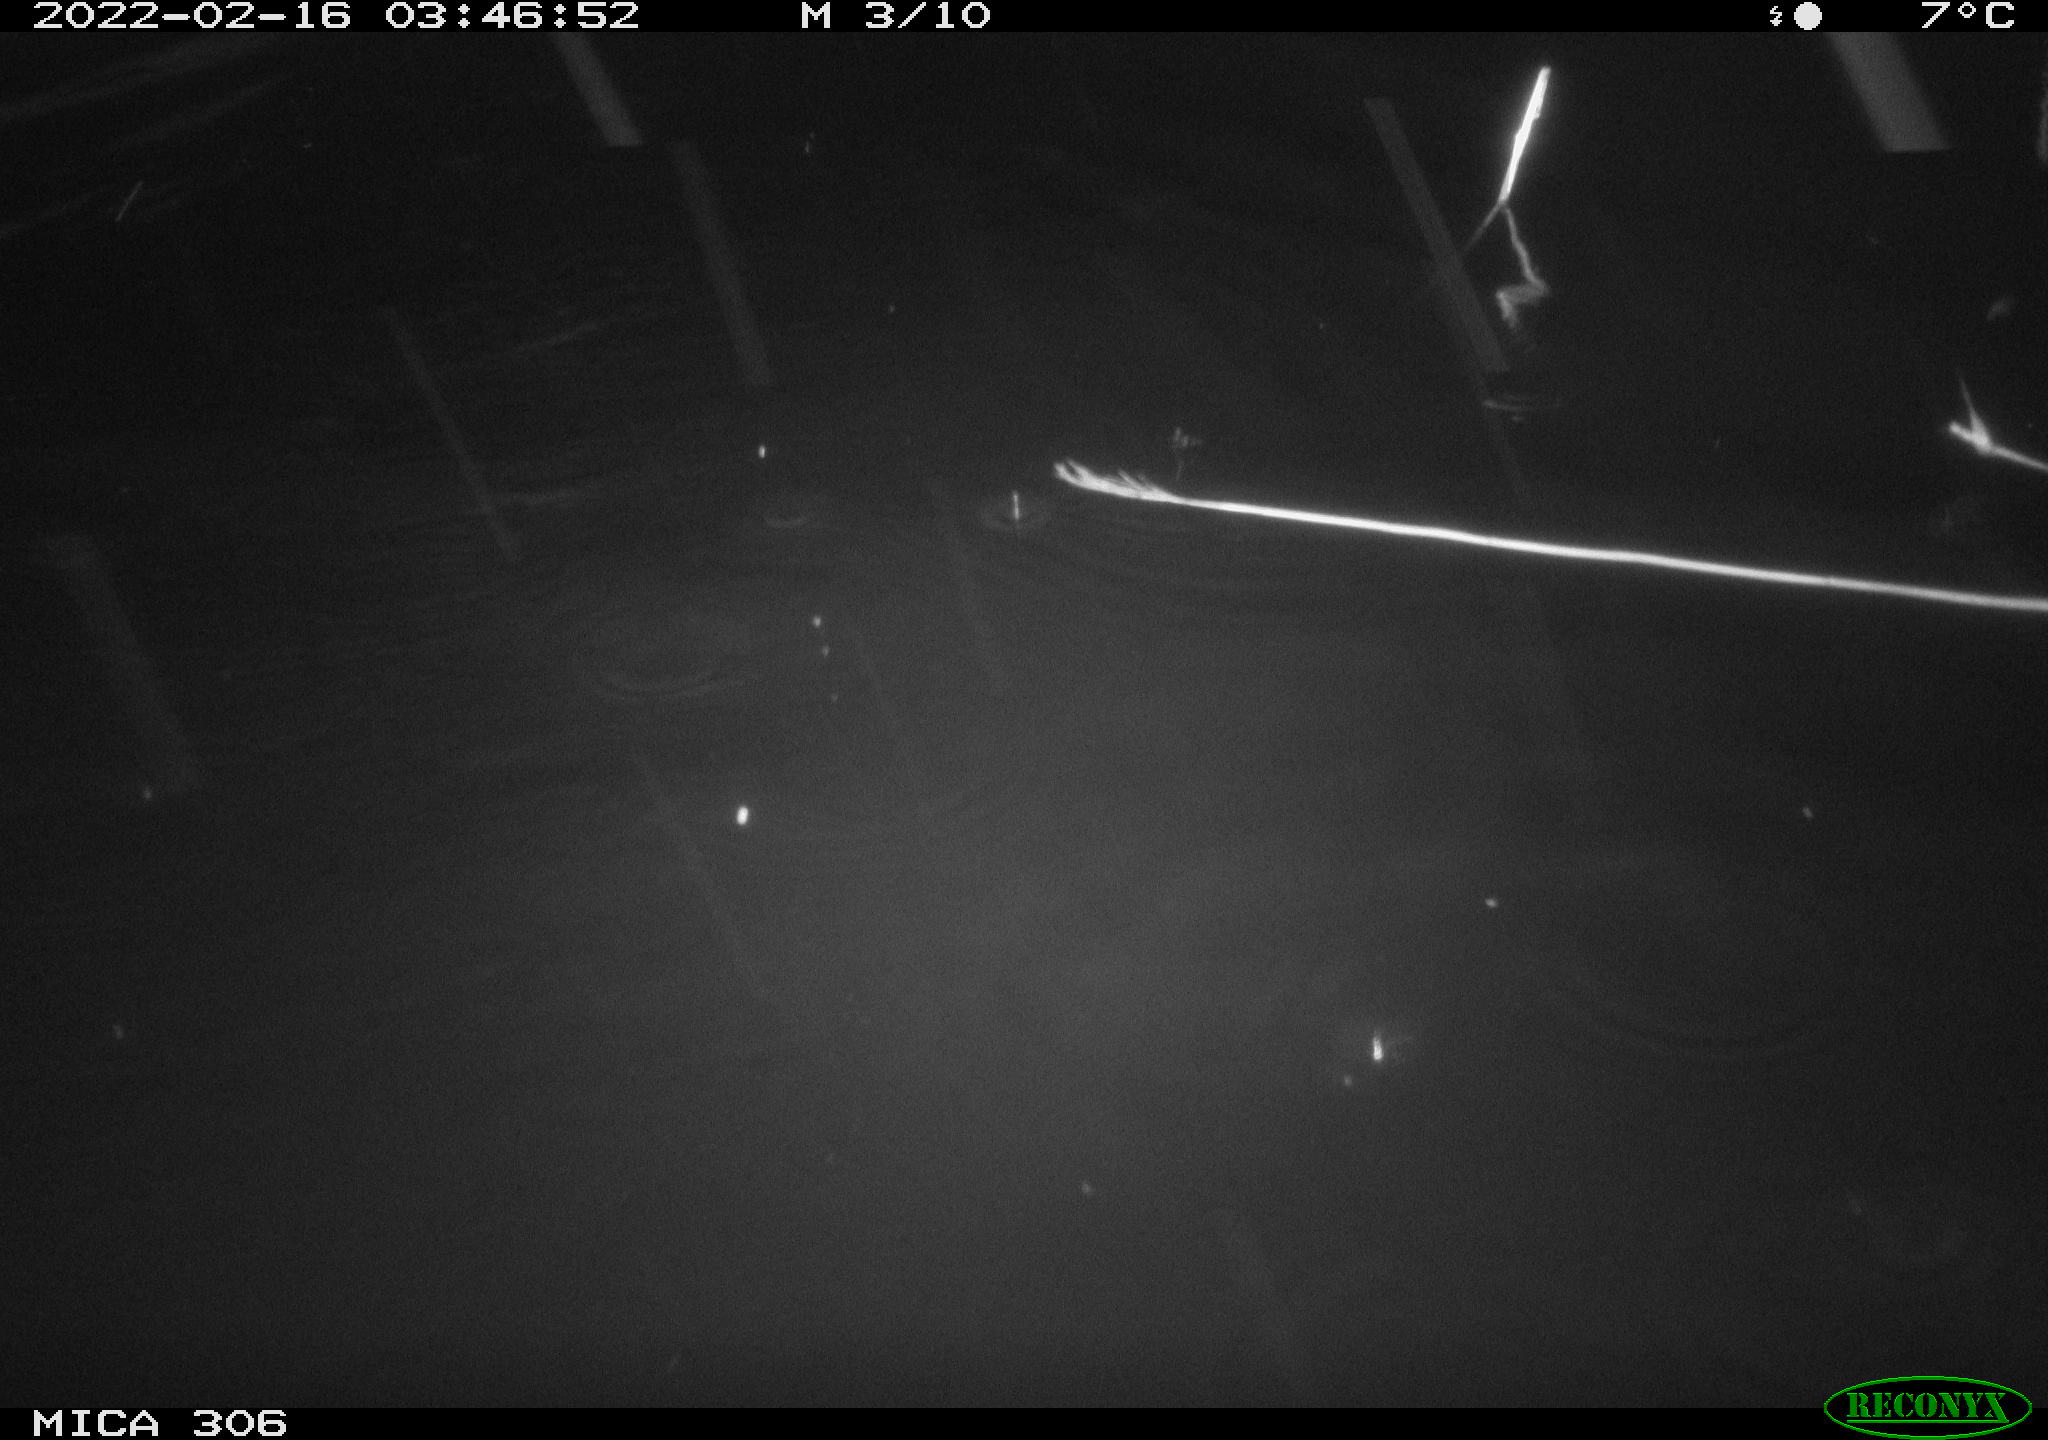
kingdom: Animalia
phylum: Chordata
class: Mammalia
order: Rodentia
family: Cricetidae
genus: Ondatra
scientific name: Ondatra zibethicus
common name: Muskrat
